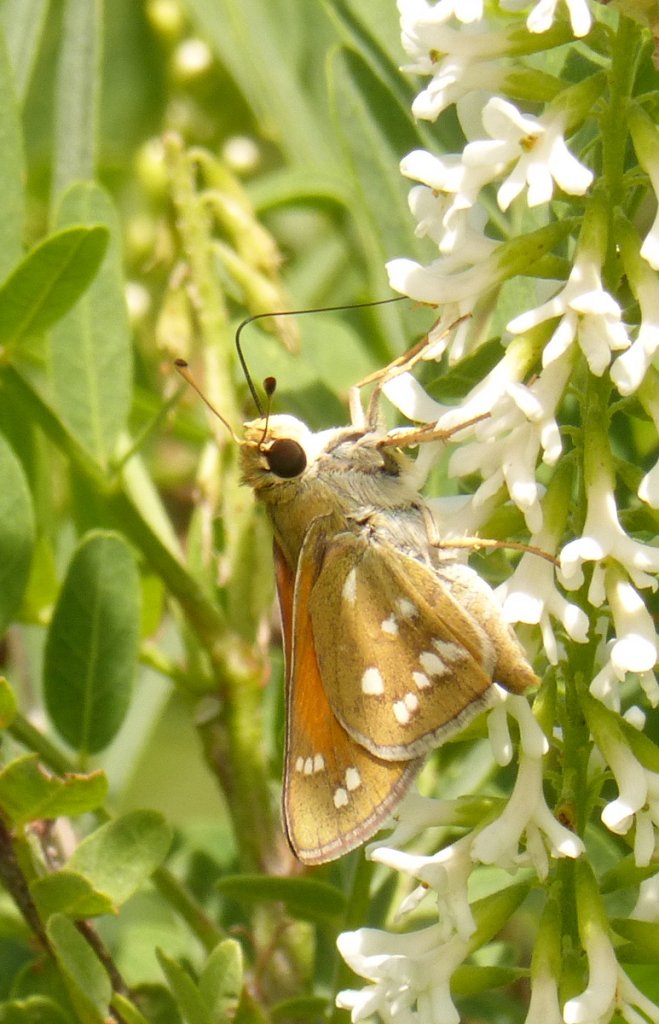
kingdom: Animalia
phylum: Arthropoda
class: Insecta
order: Lepidoptera
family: Hesperiidae
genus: Hesperia
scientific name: Hesperia pahaska
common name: Pahaska Skipper
